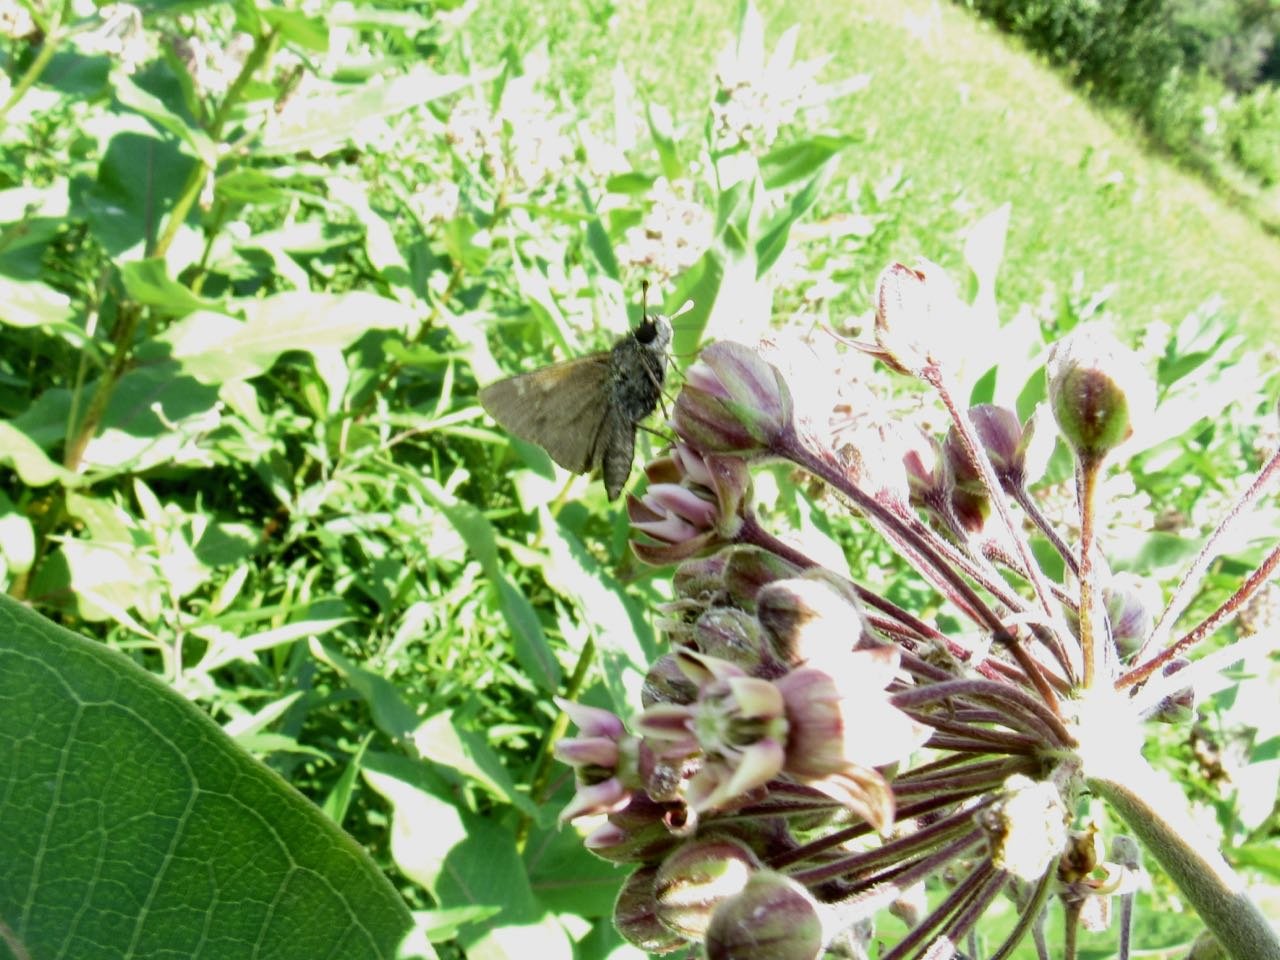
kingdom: Animalia
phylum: Arthropoda
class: Insecta
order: Lepidoptera
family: Hesperiidae
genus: Polites
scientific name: Polites themistocles
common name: Tawny-edged Skipper
